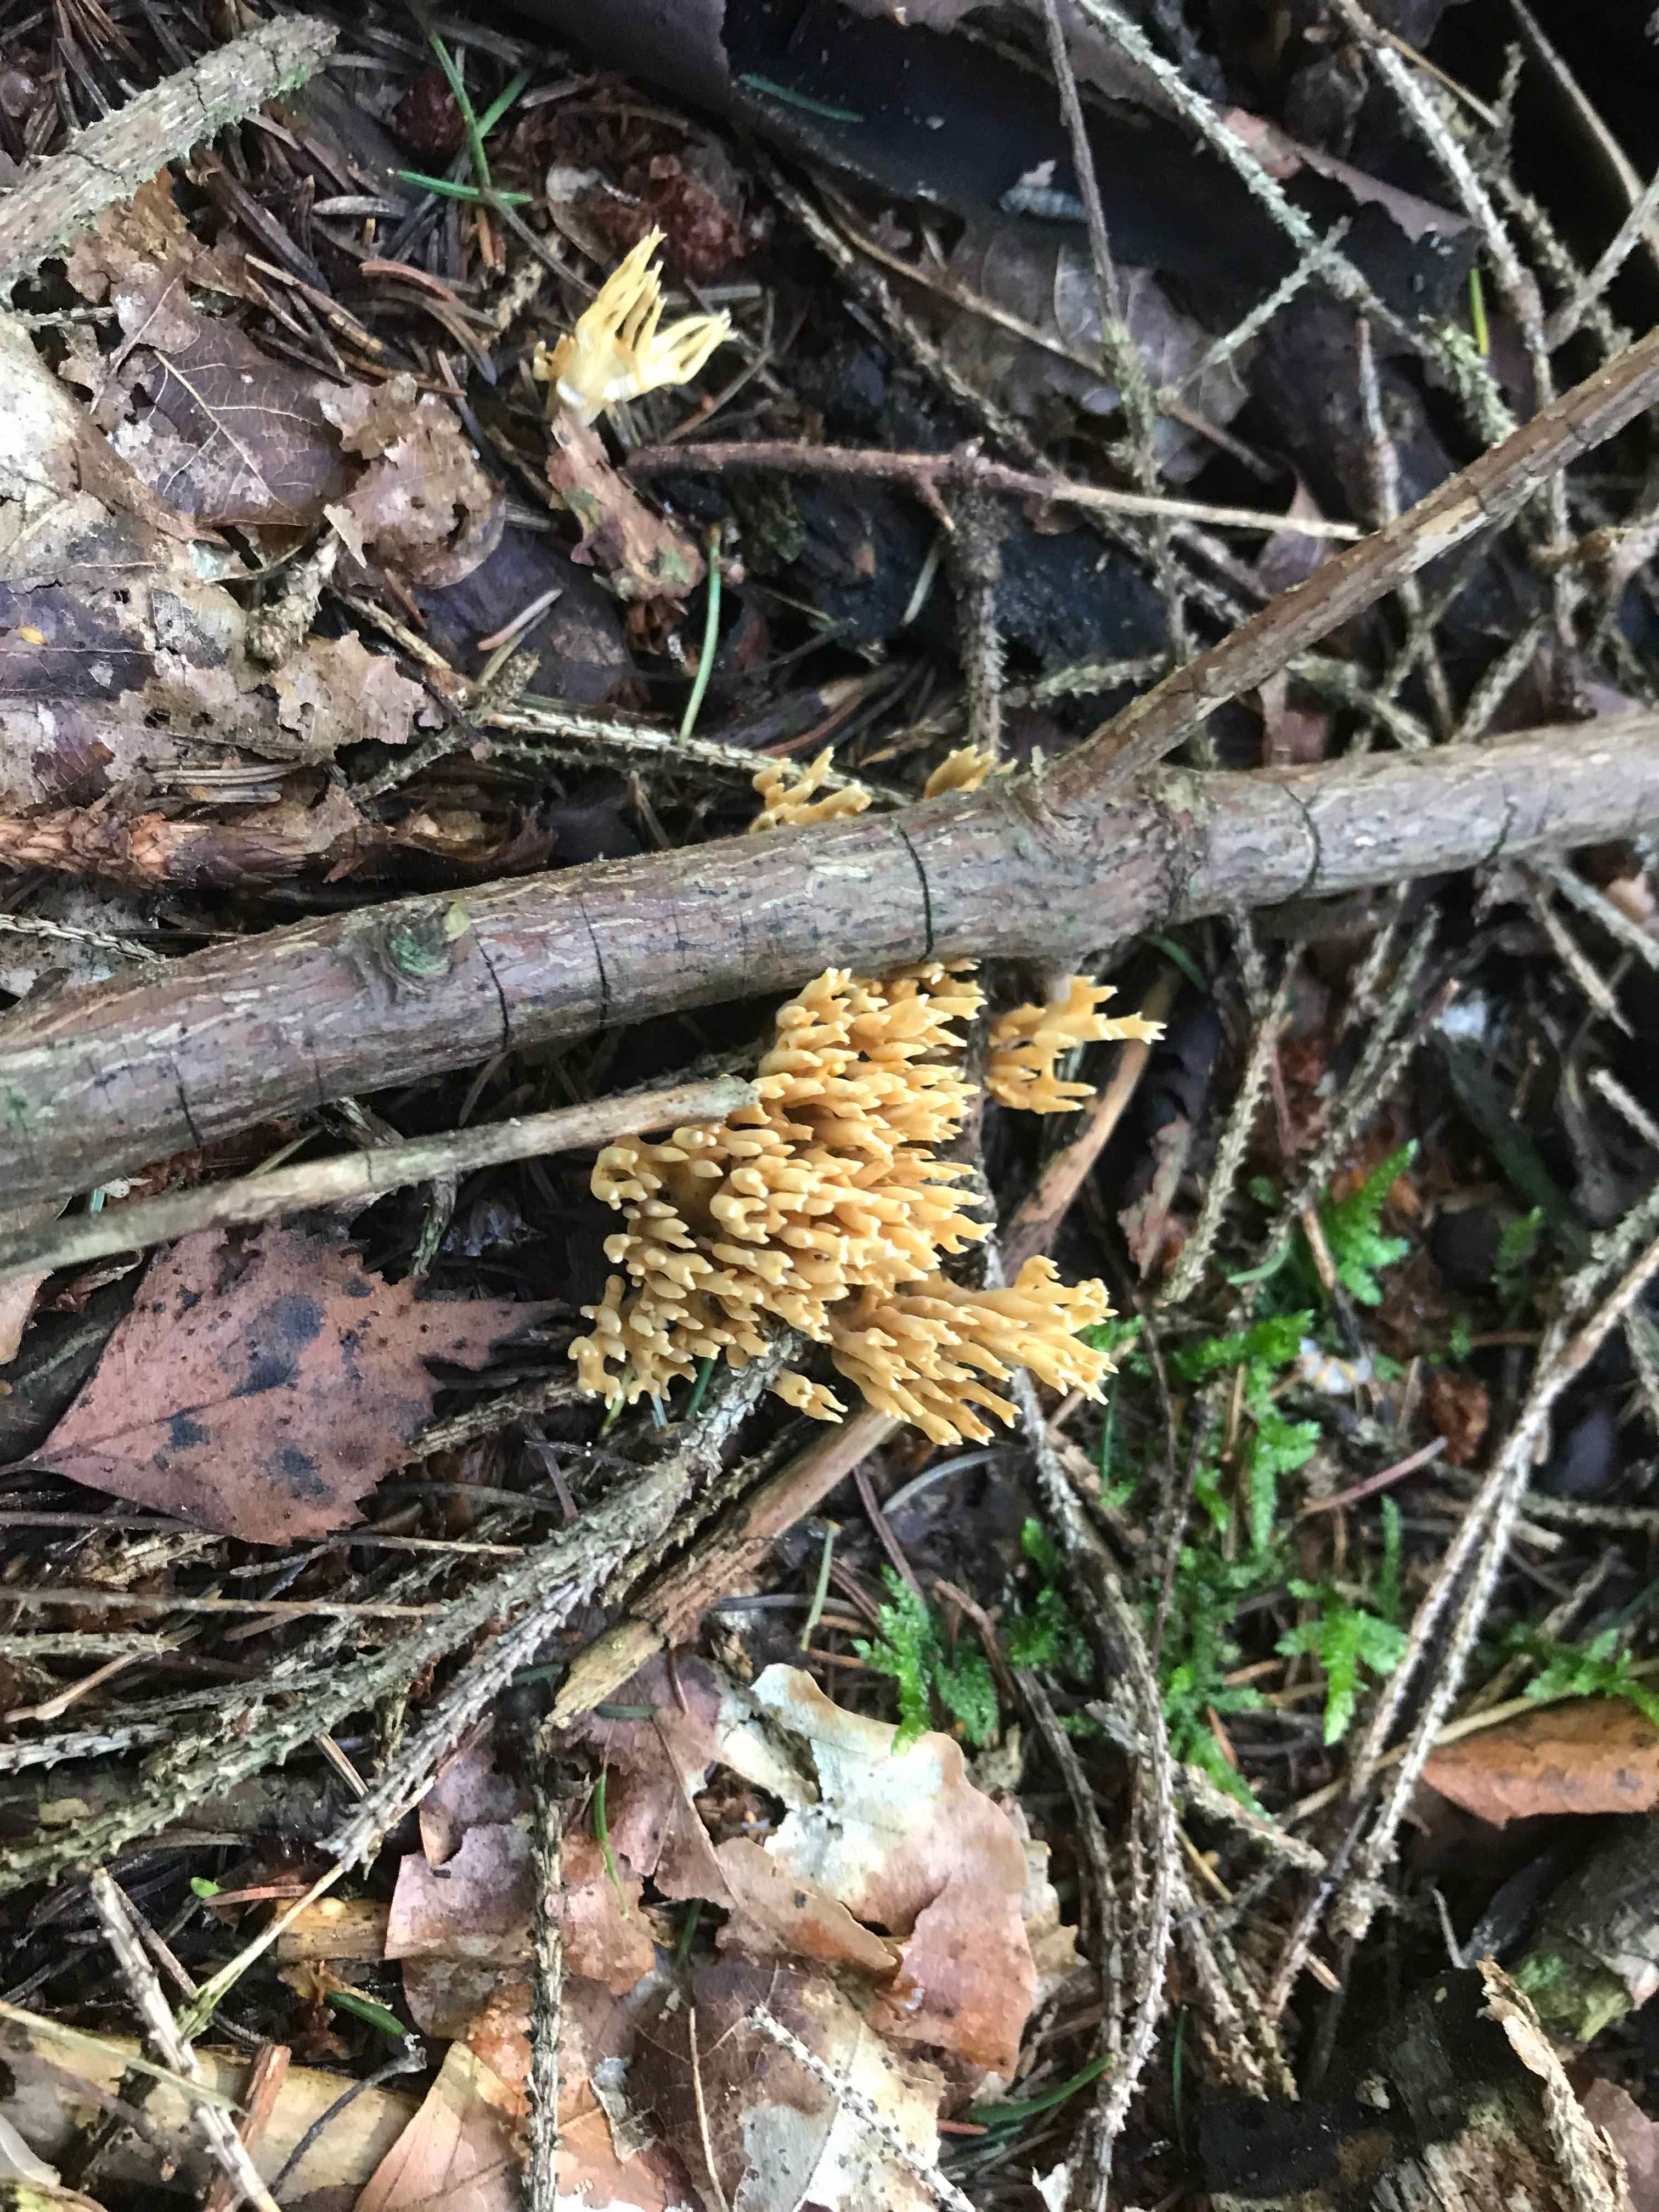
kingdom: Fungi
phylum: Basidiomycota
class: Agaricomycetes
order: Gomphales
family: Gomphaceae
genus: Phaeoclavulina
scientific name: Phaeoclavulina eumorpha
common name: gran-koralsvamp
